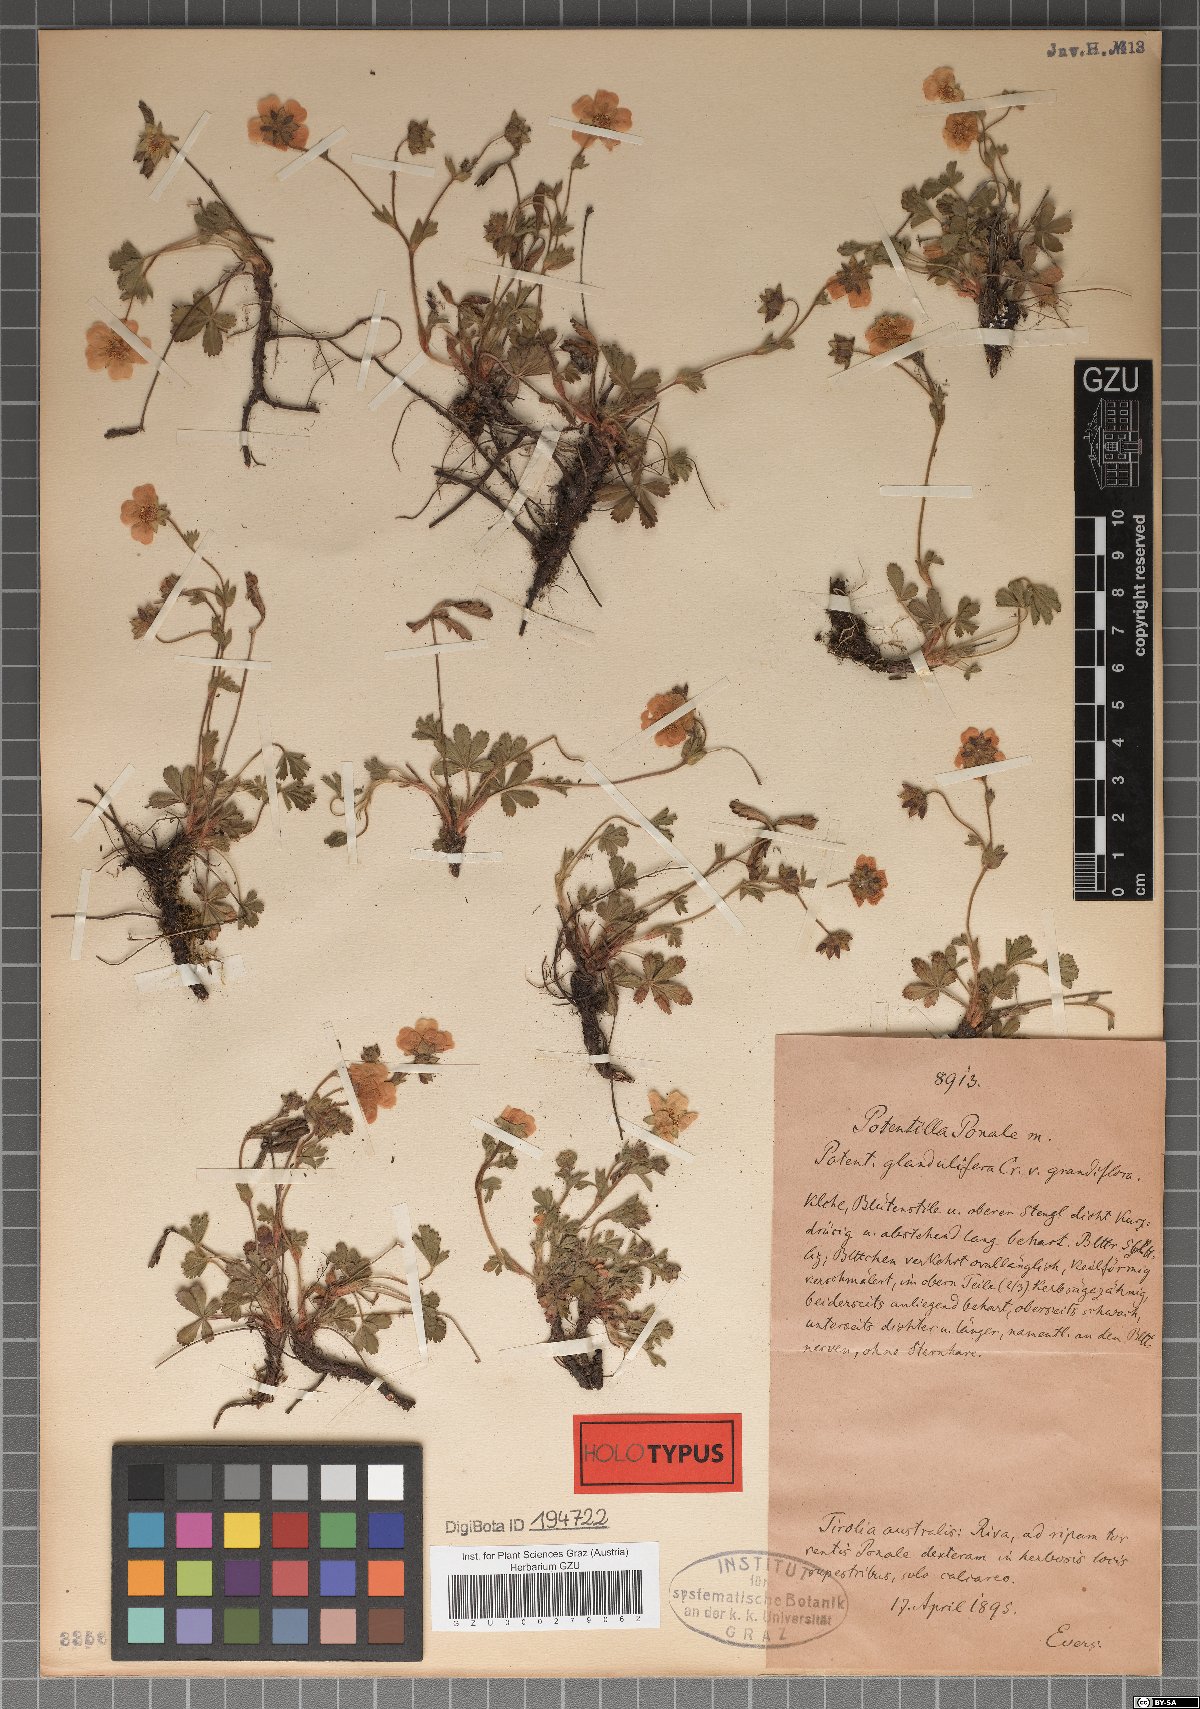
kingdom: Plantae
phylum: Tracheophyta
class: Magnoliopsida
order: Rosales
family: Rosaceae
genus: Potentilla
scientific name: Potentilla pusilla
